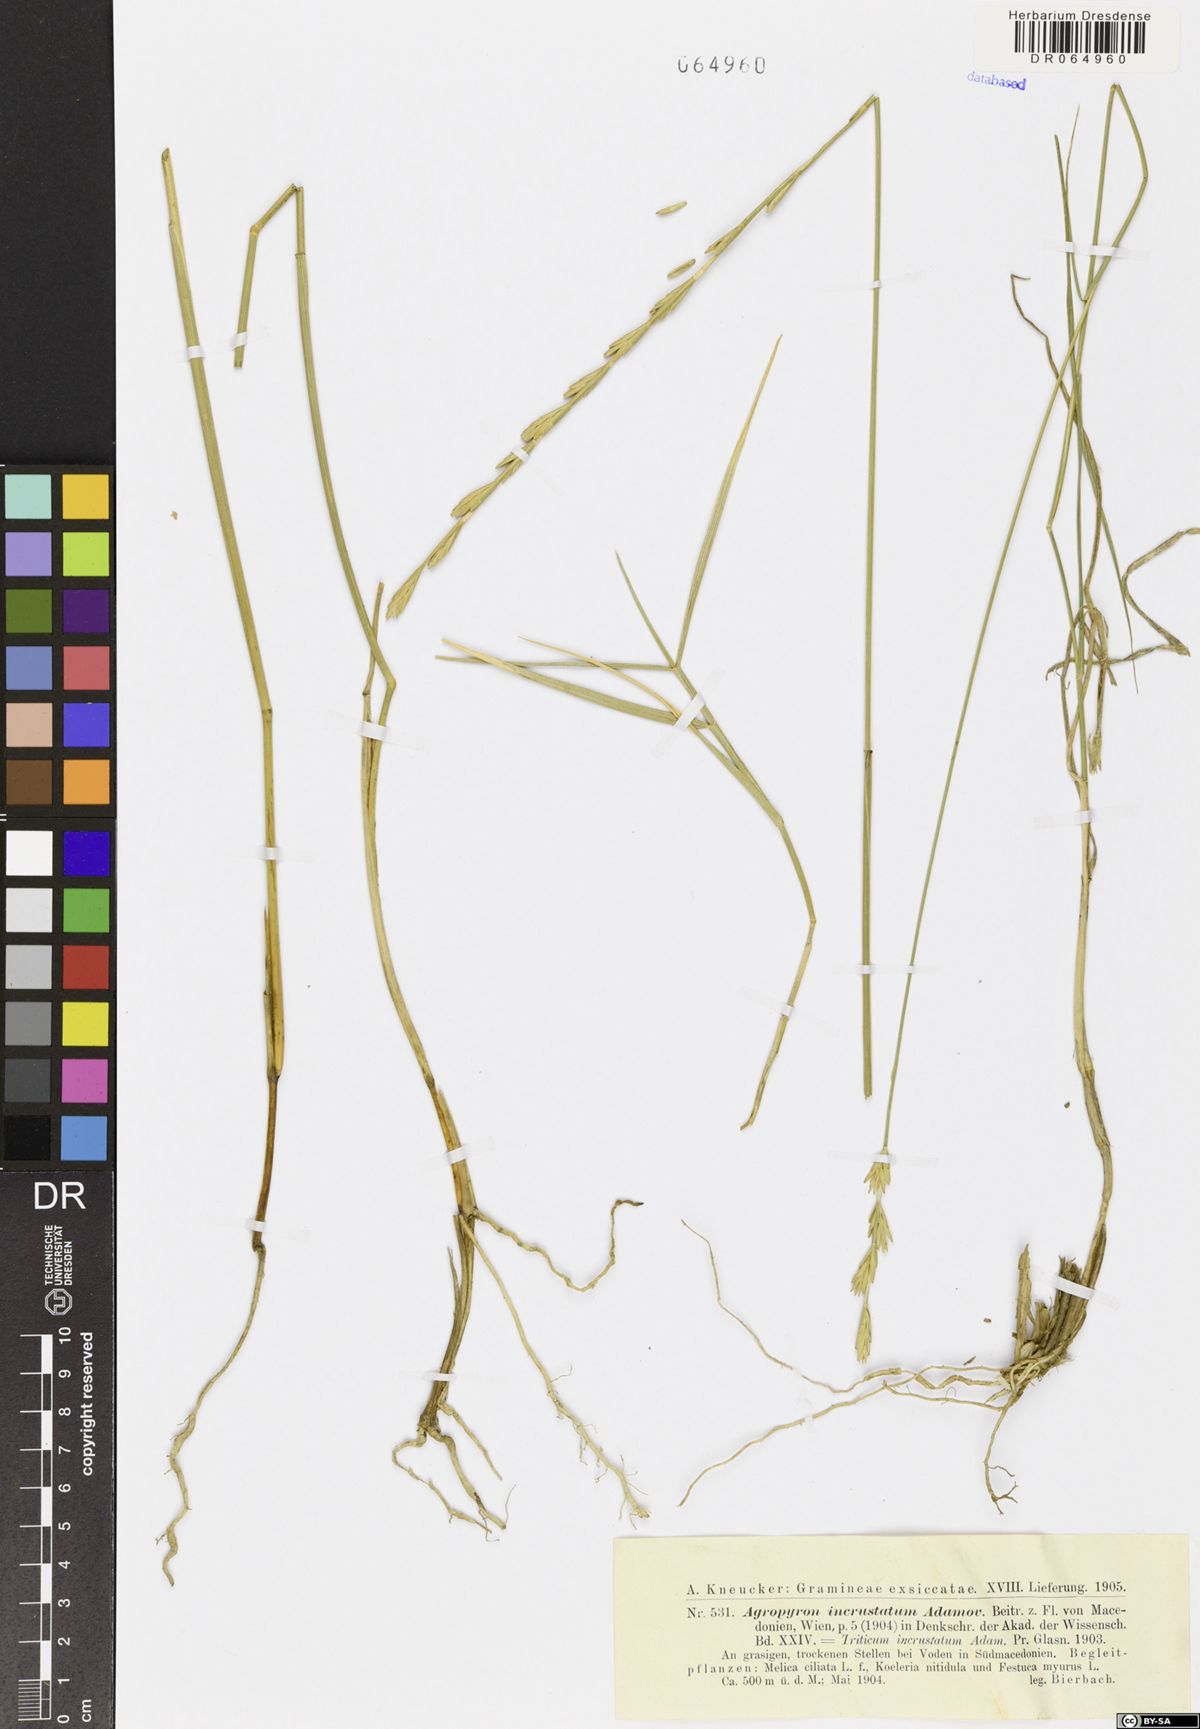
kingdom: Plantae
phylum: Tracheophyta
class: Liliopsida
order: Poales
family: Poaceae
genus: Thinopyrum
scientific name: Thinopyrum varnense
